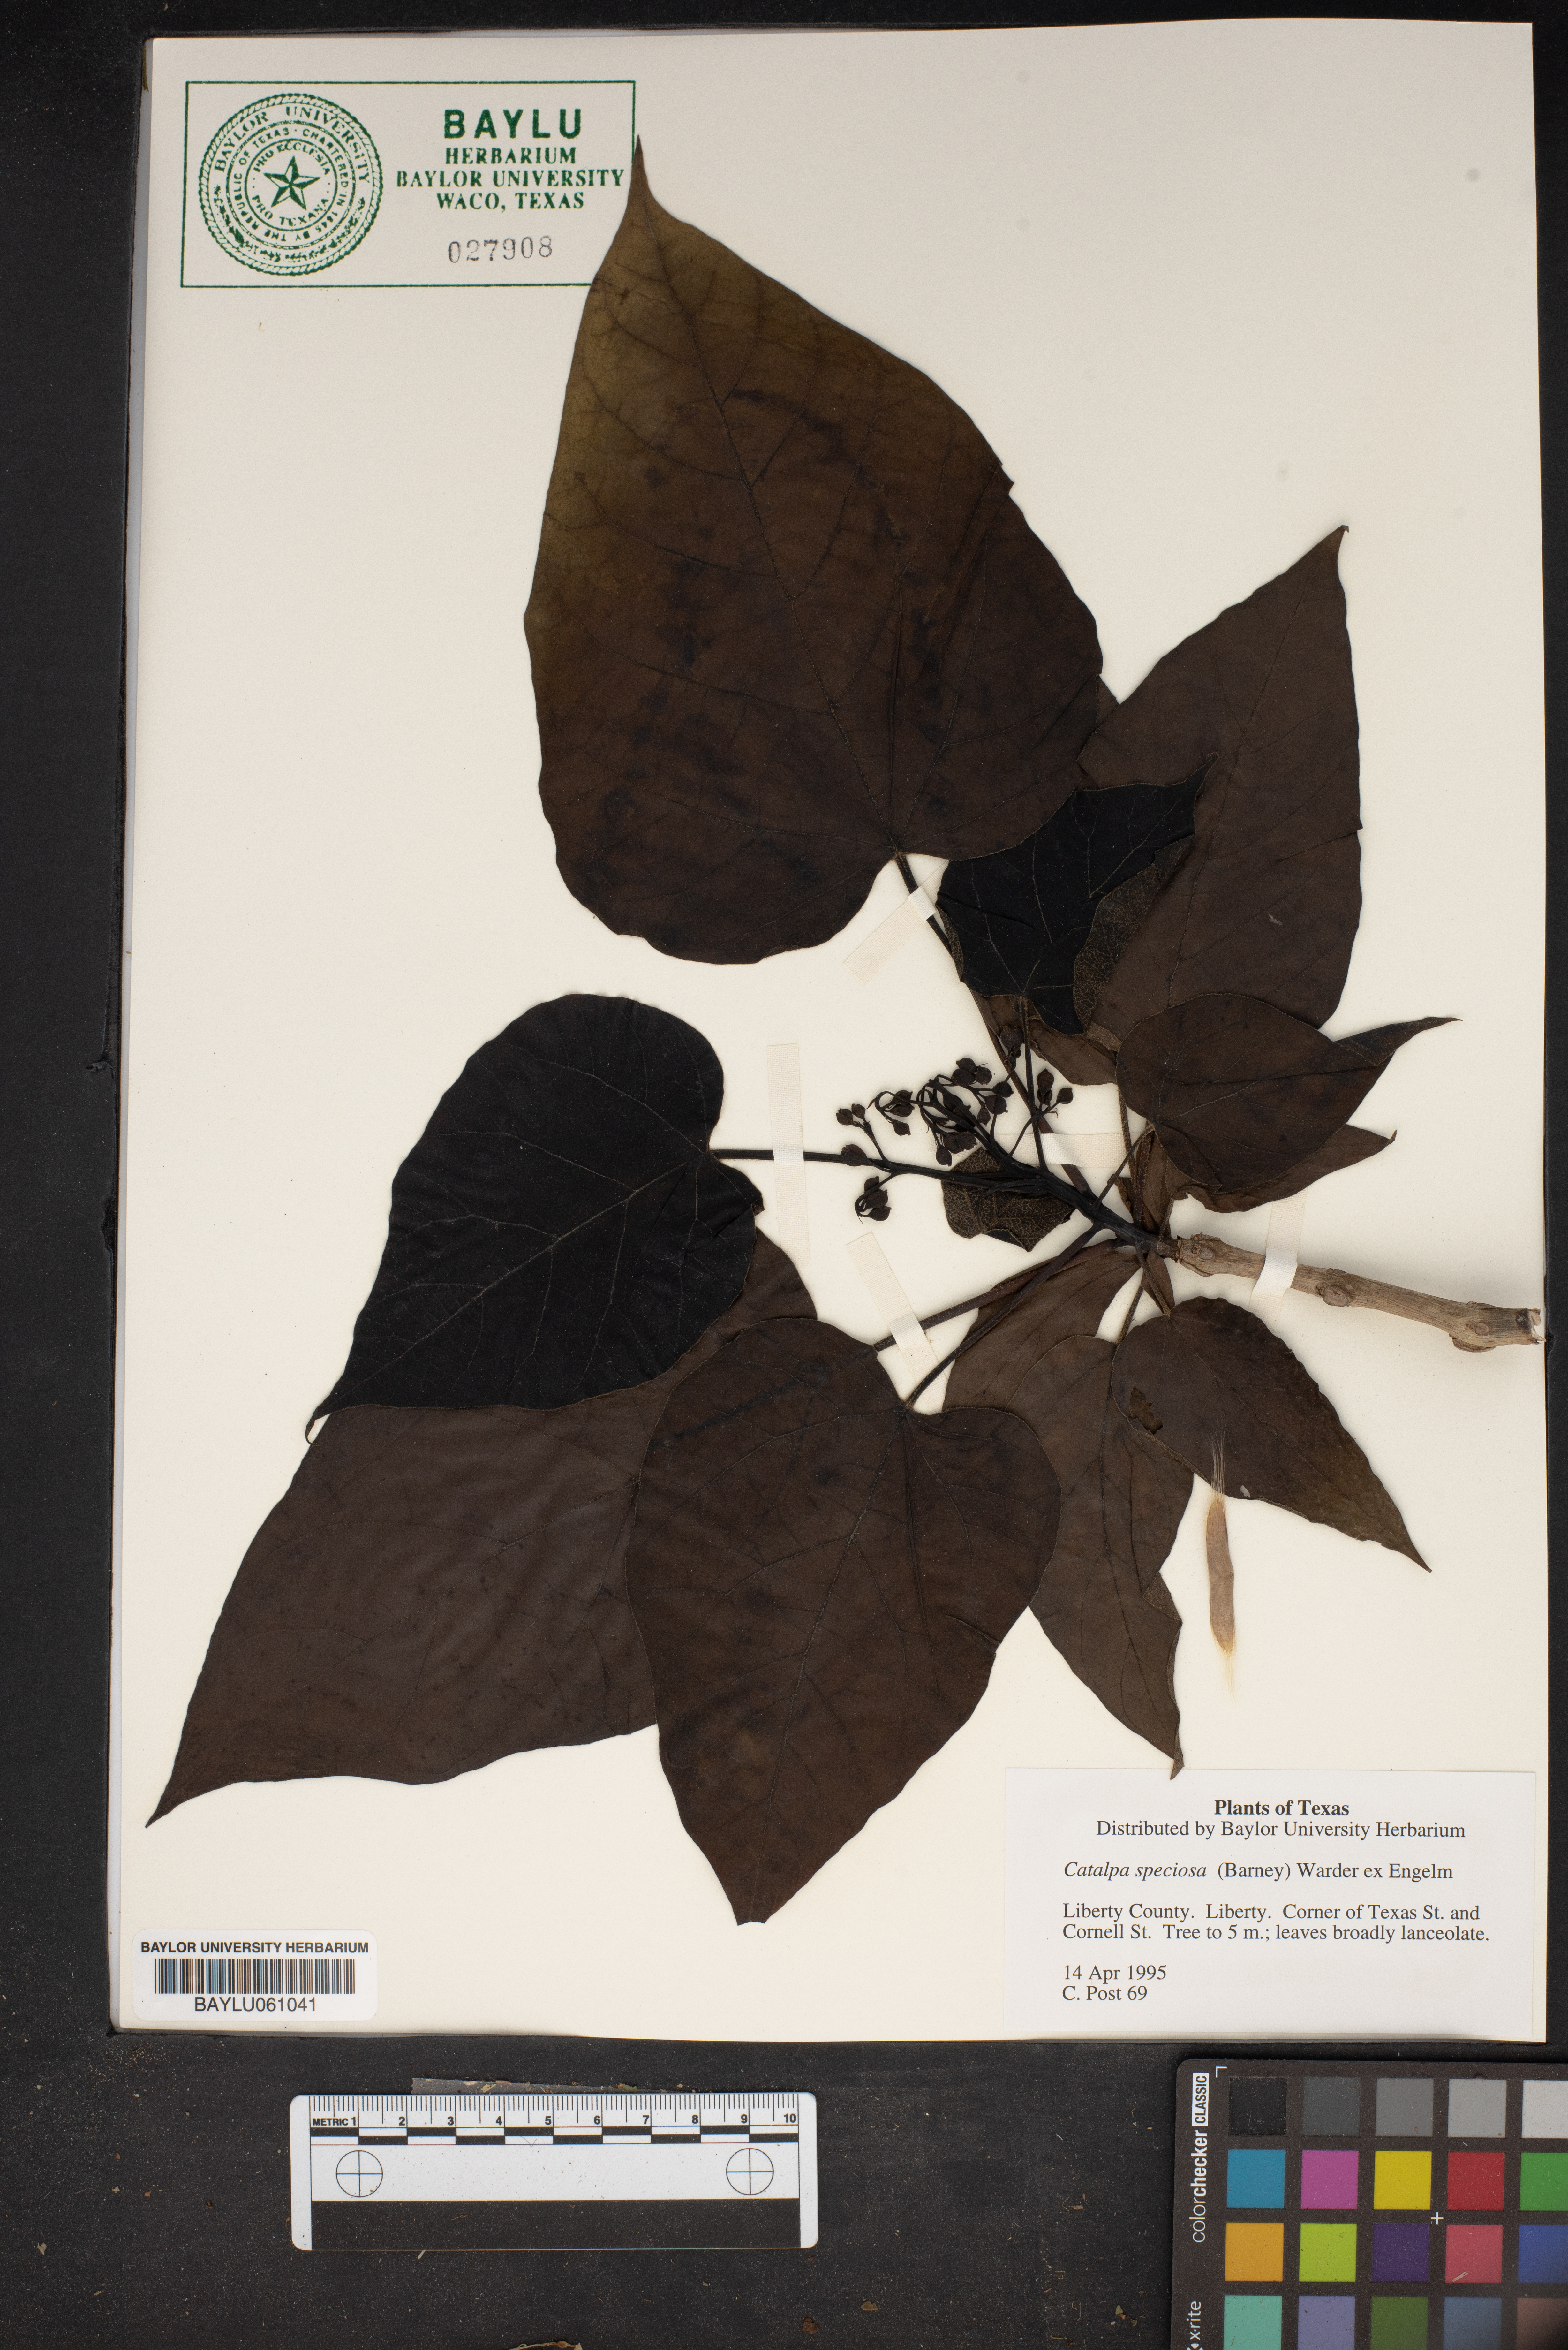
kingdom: Plantae
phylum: Tracheophyta
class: Magnoliopsida
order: Lamiales
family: Bignoniaceae
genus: Catalpa
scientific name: Catalpa speciosa
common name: Northern catalpa
